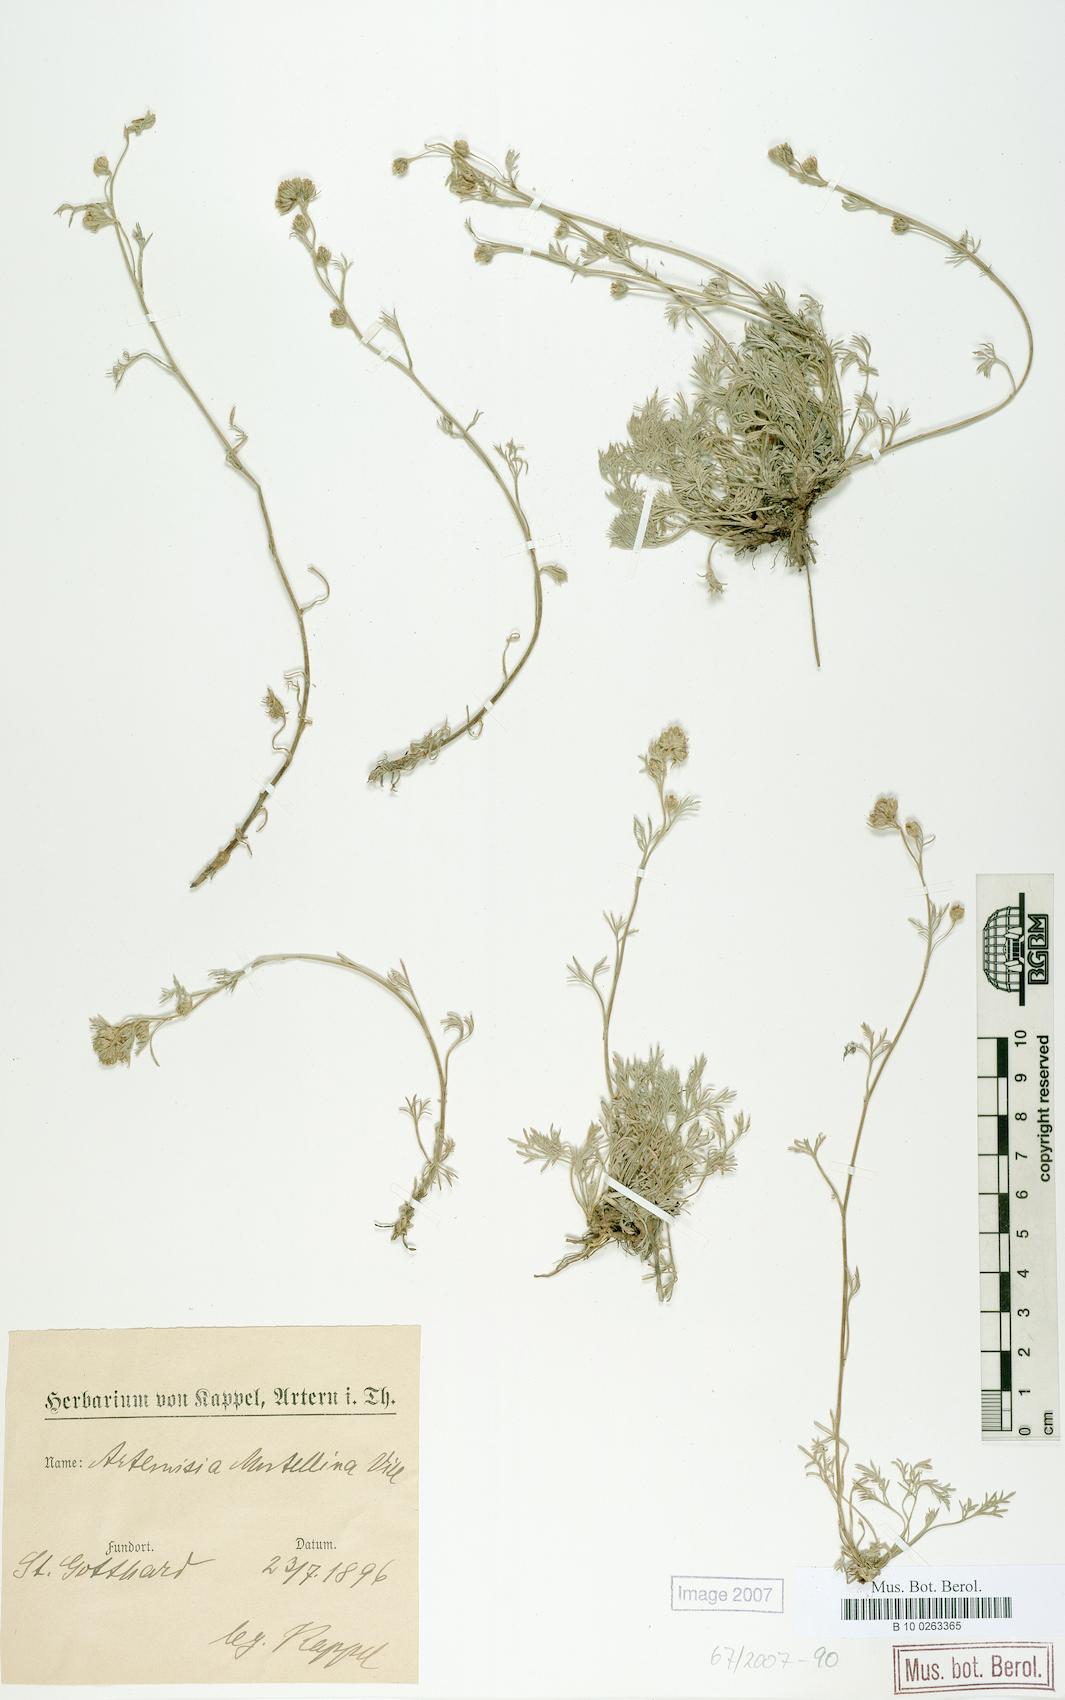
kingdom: Plantae
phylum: Tracheophyta
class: Magnoliopsida
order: Asterales
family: Asteraceae
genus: Artemisia
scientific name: Artemisia mutellina
